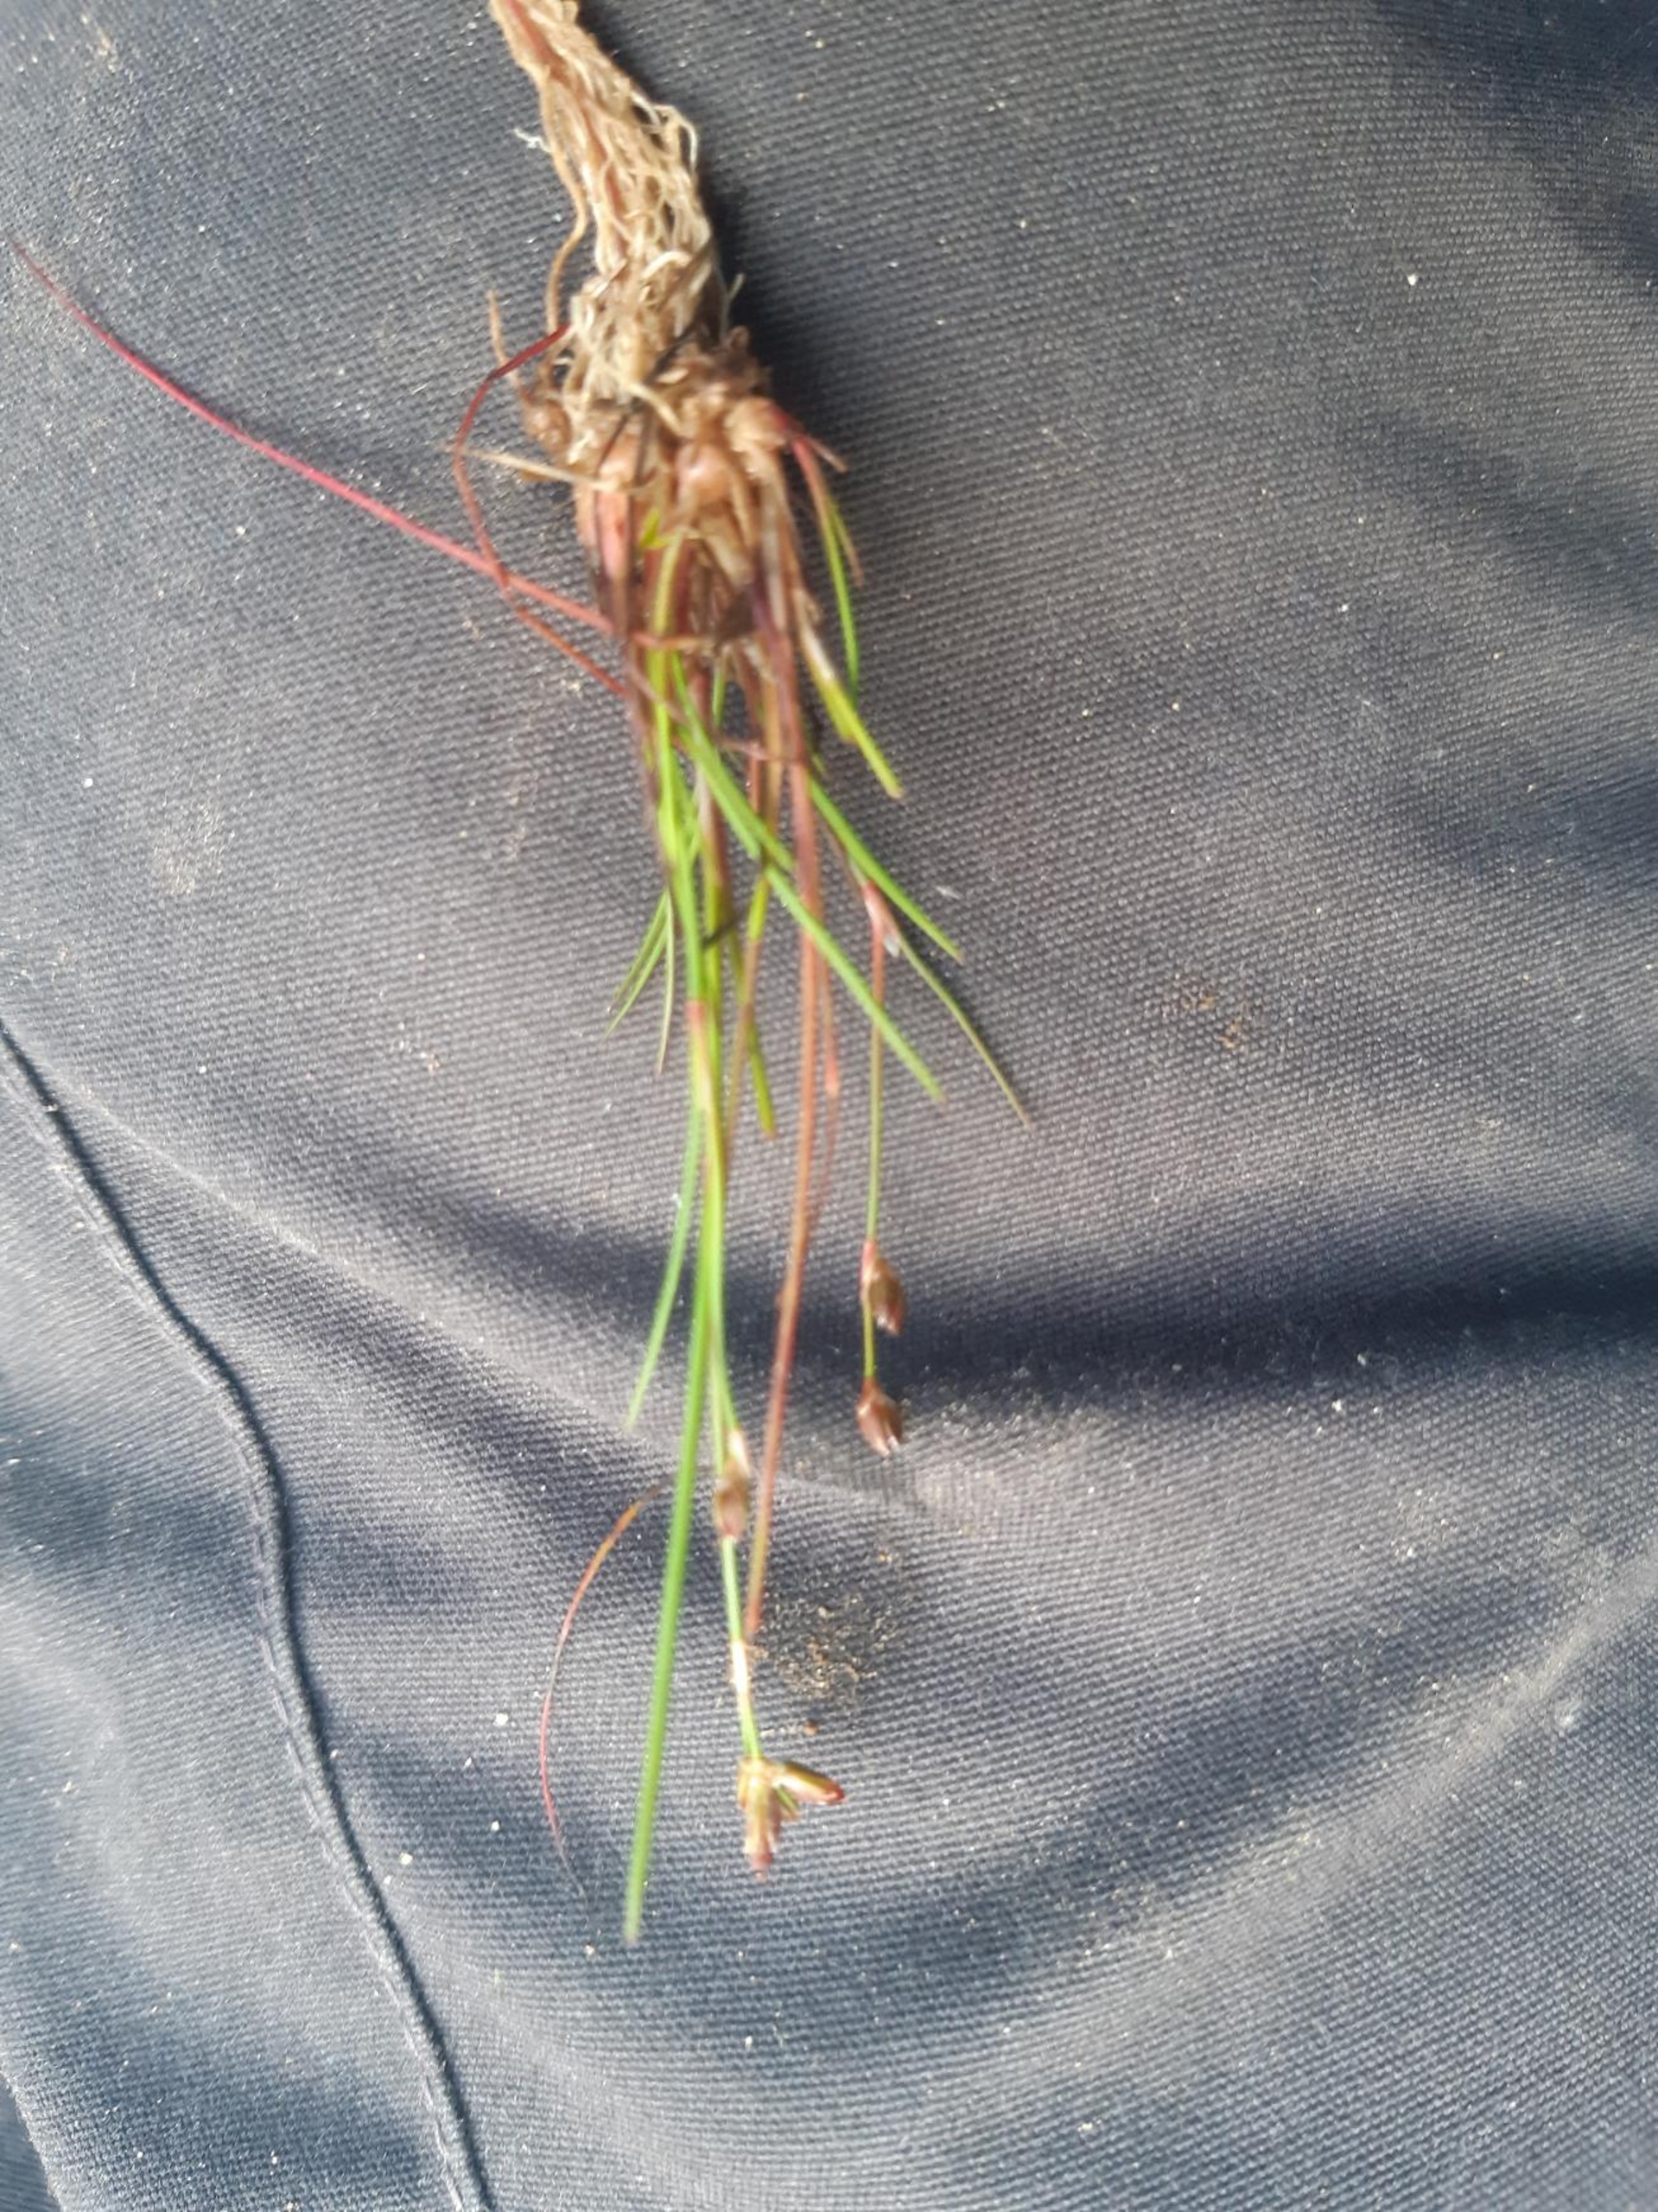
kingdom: Plantae
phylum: Tracheophyta
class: Liliopsida
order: Poales
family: Juncaceae
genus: Juncus
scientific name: Juncus bulbosus
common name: Liden siv
